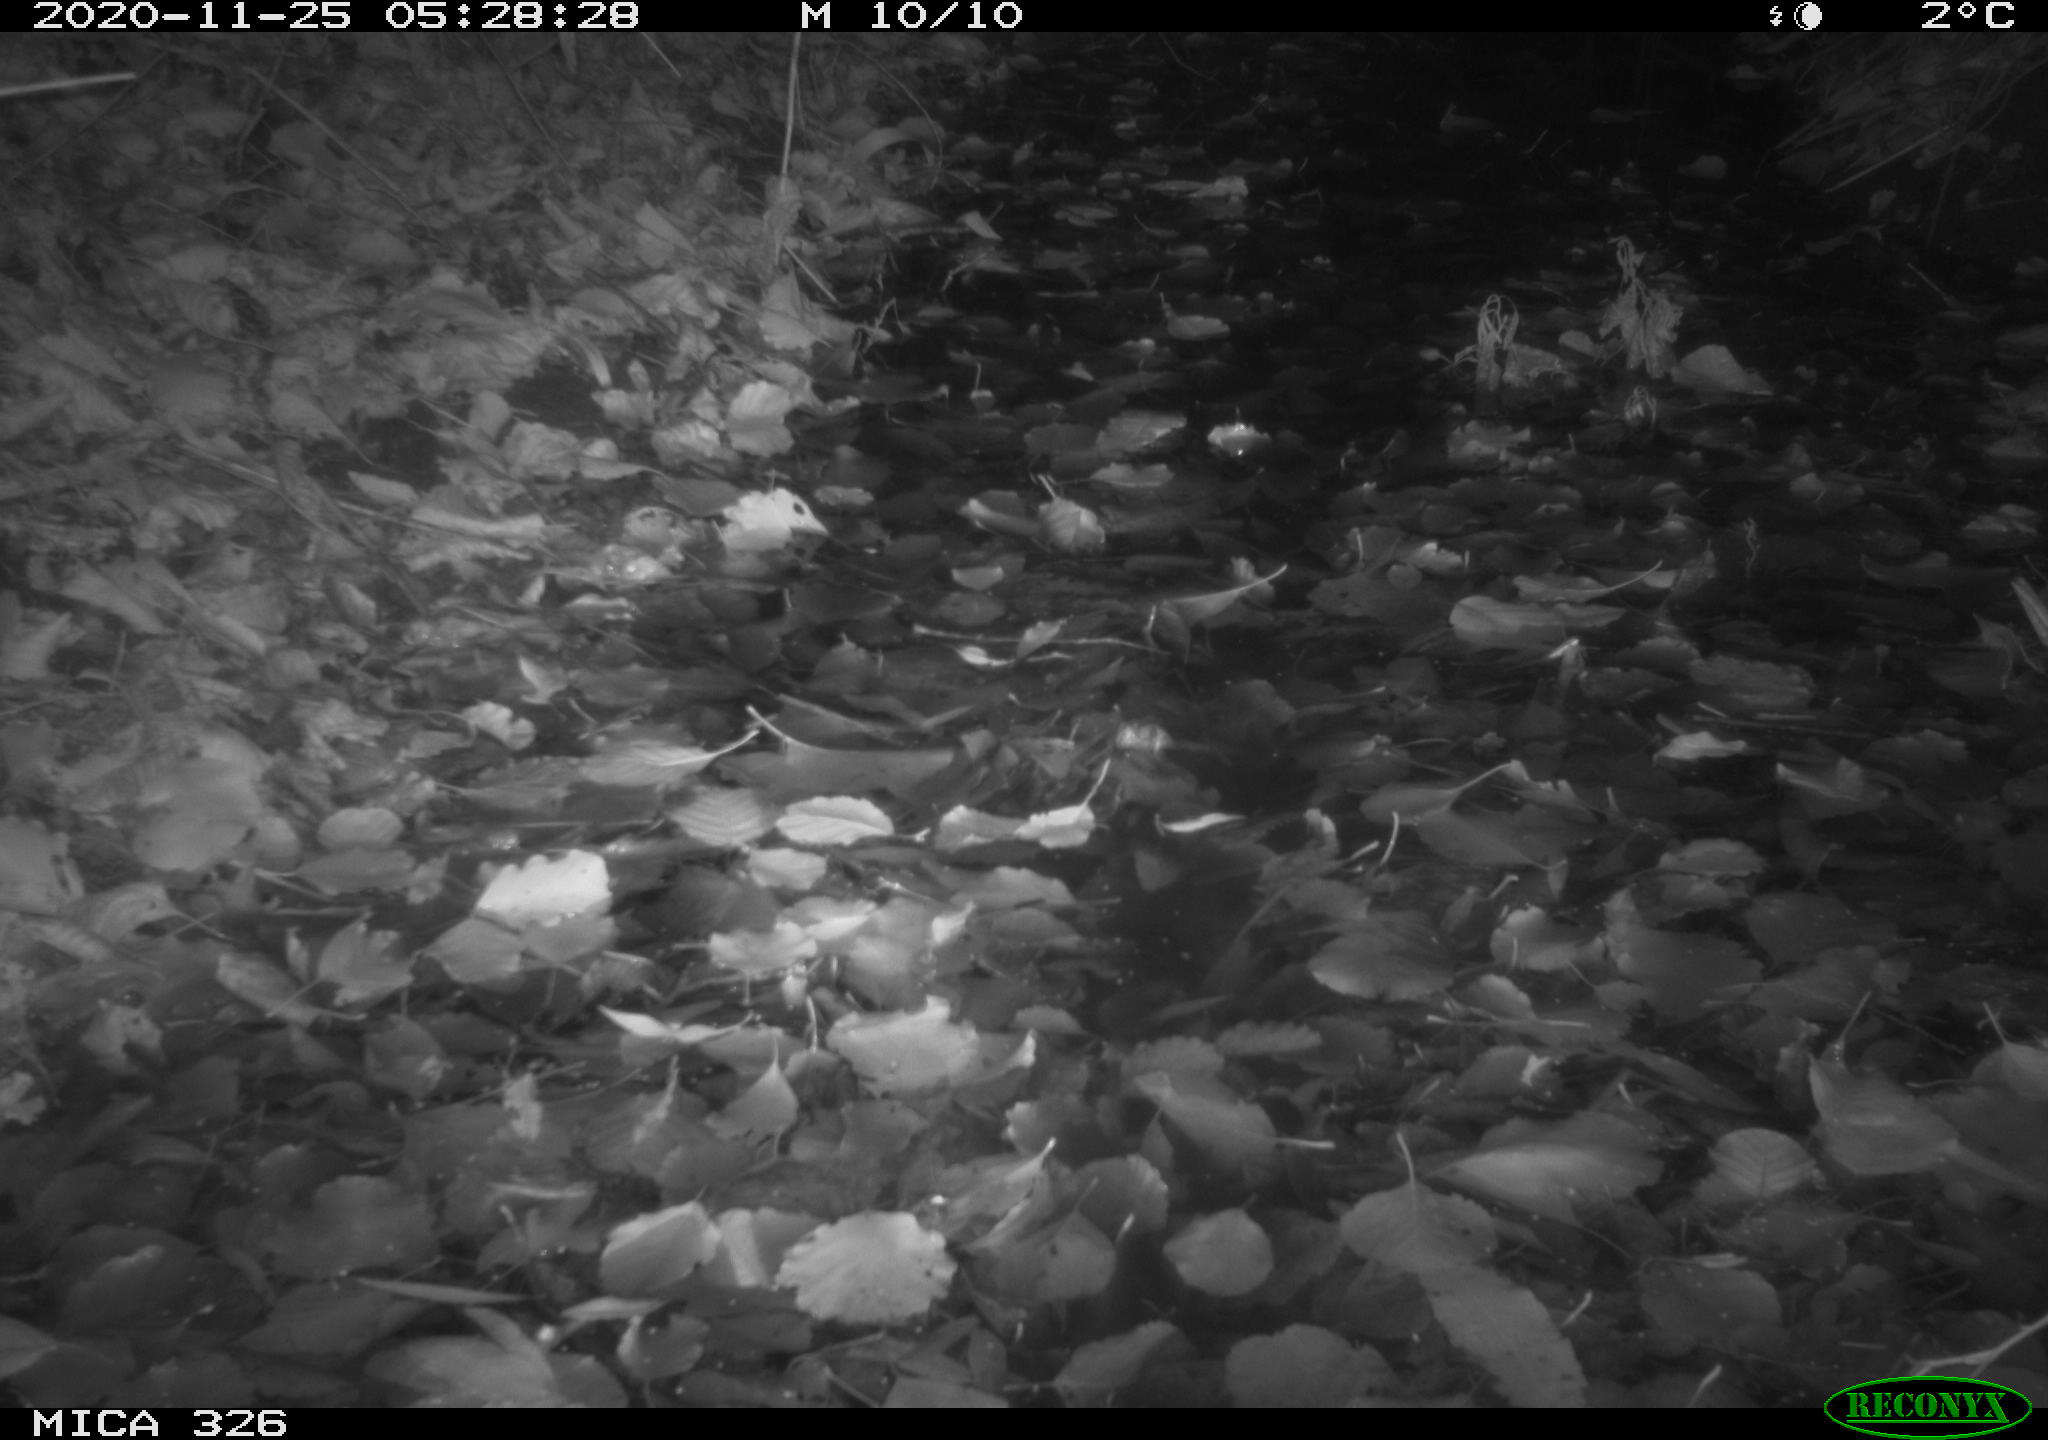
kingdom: Animalia
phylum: Chordata
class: Mammalia
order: Rodentia
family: Myocastoridae
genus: Myocastor
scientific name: Myocastor coypus
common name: Coypu
